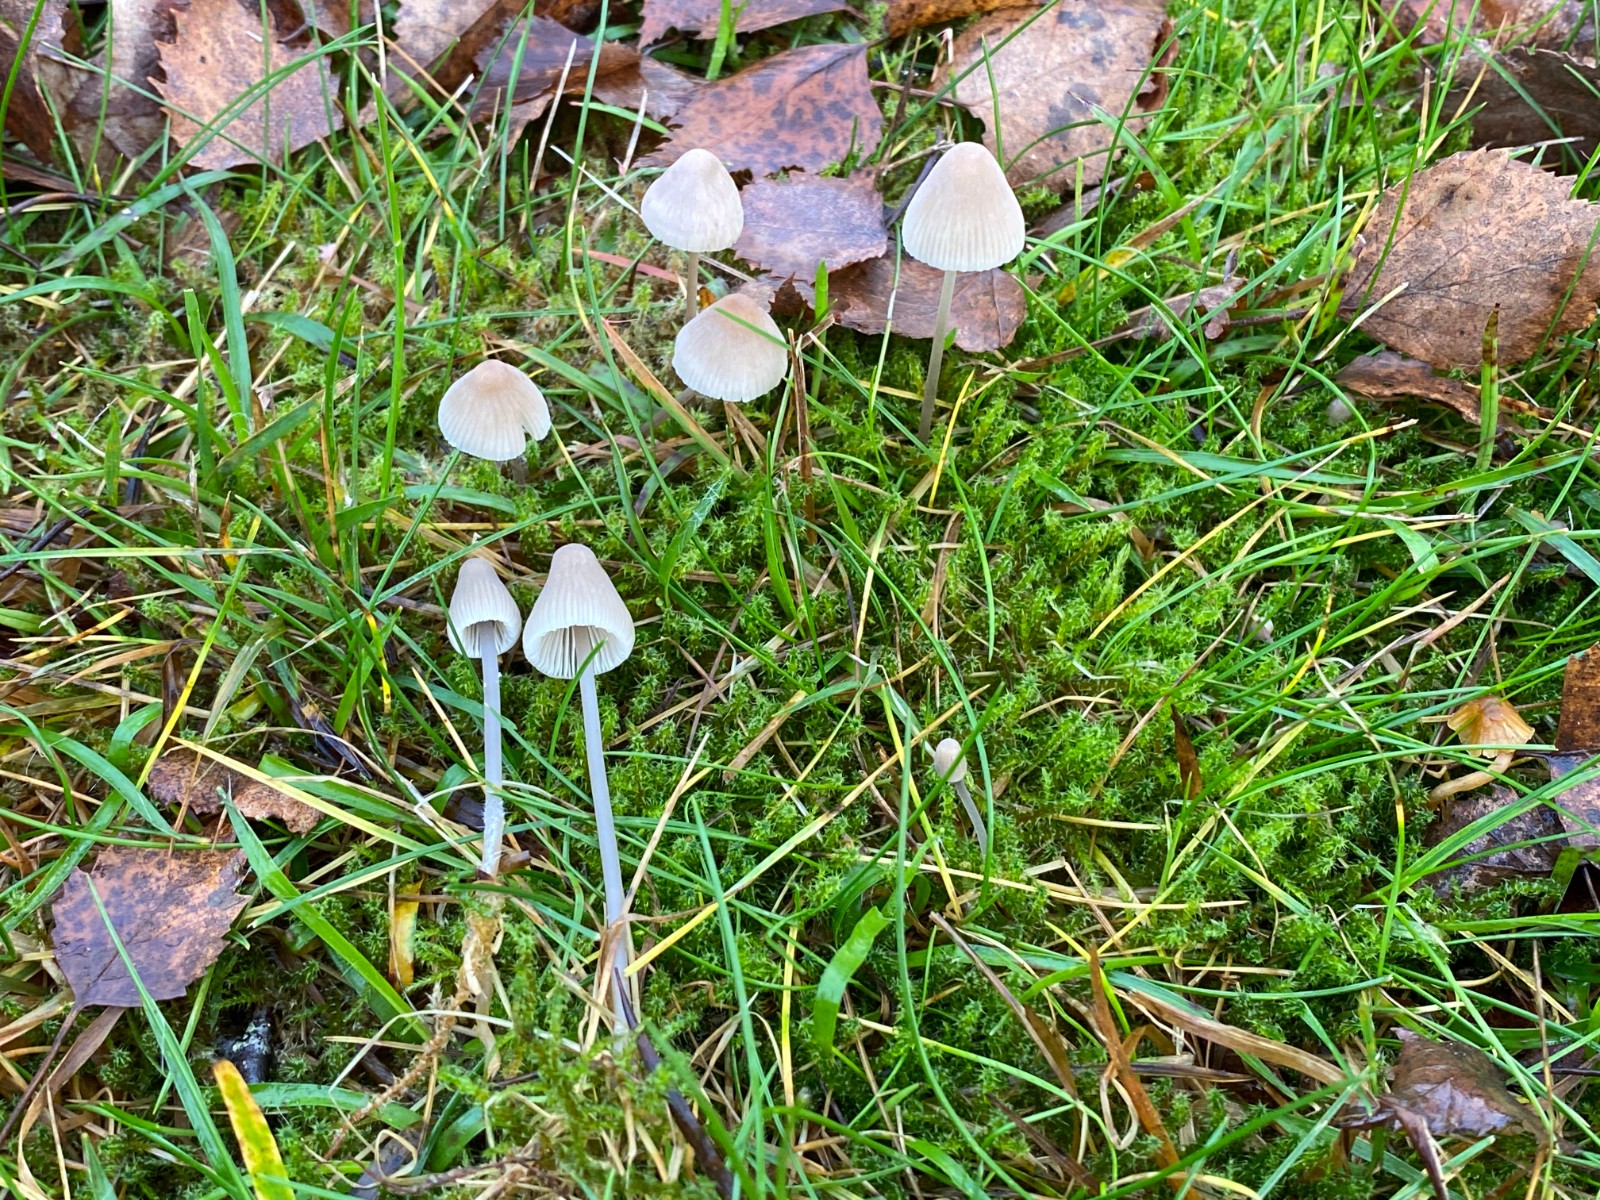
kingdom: Fungi
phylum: Basidiomycota
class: Agaricomycetes
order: Agaricales
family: Mycenaceae
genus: Mycena
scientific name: Mycena filopes
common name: Iodine bonnet
